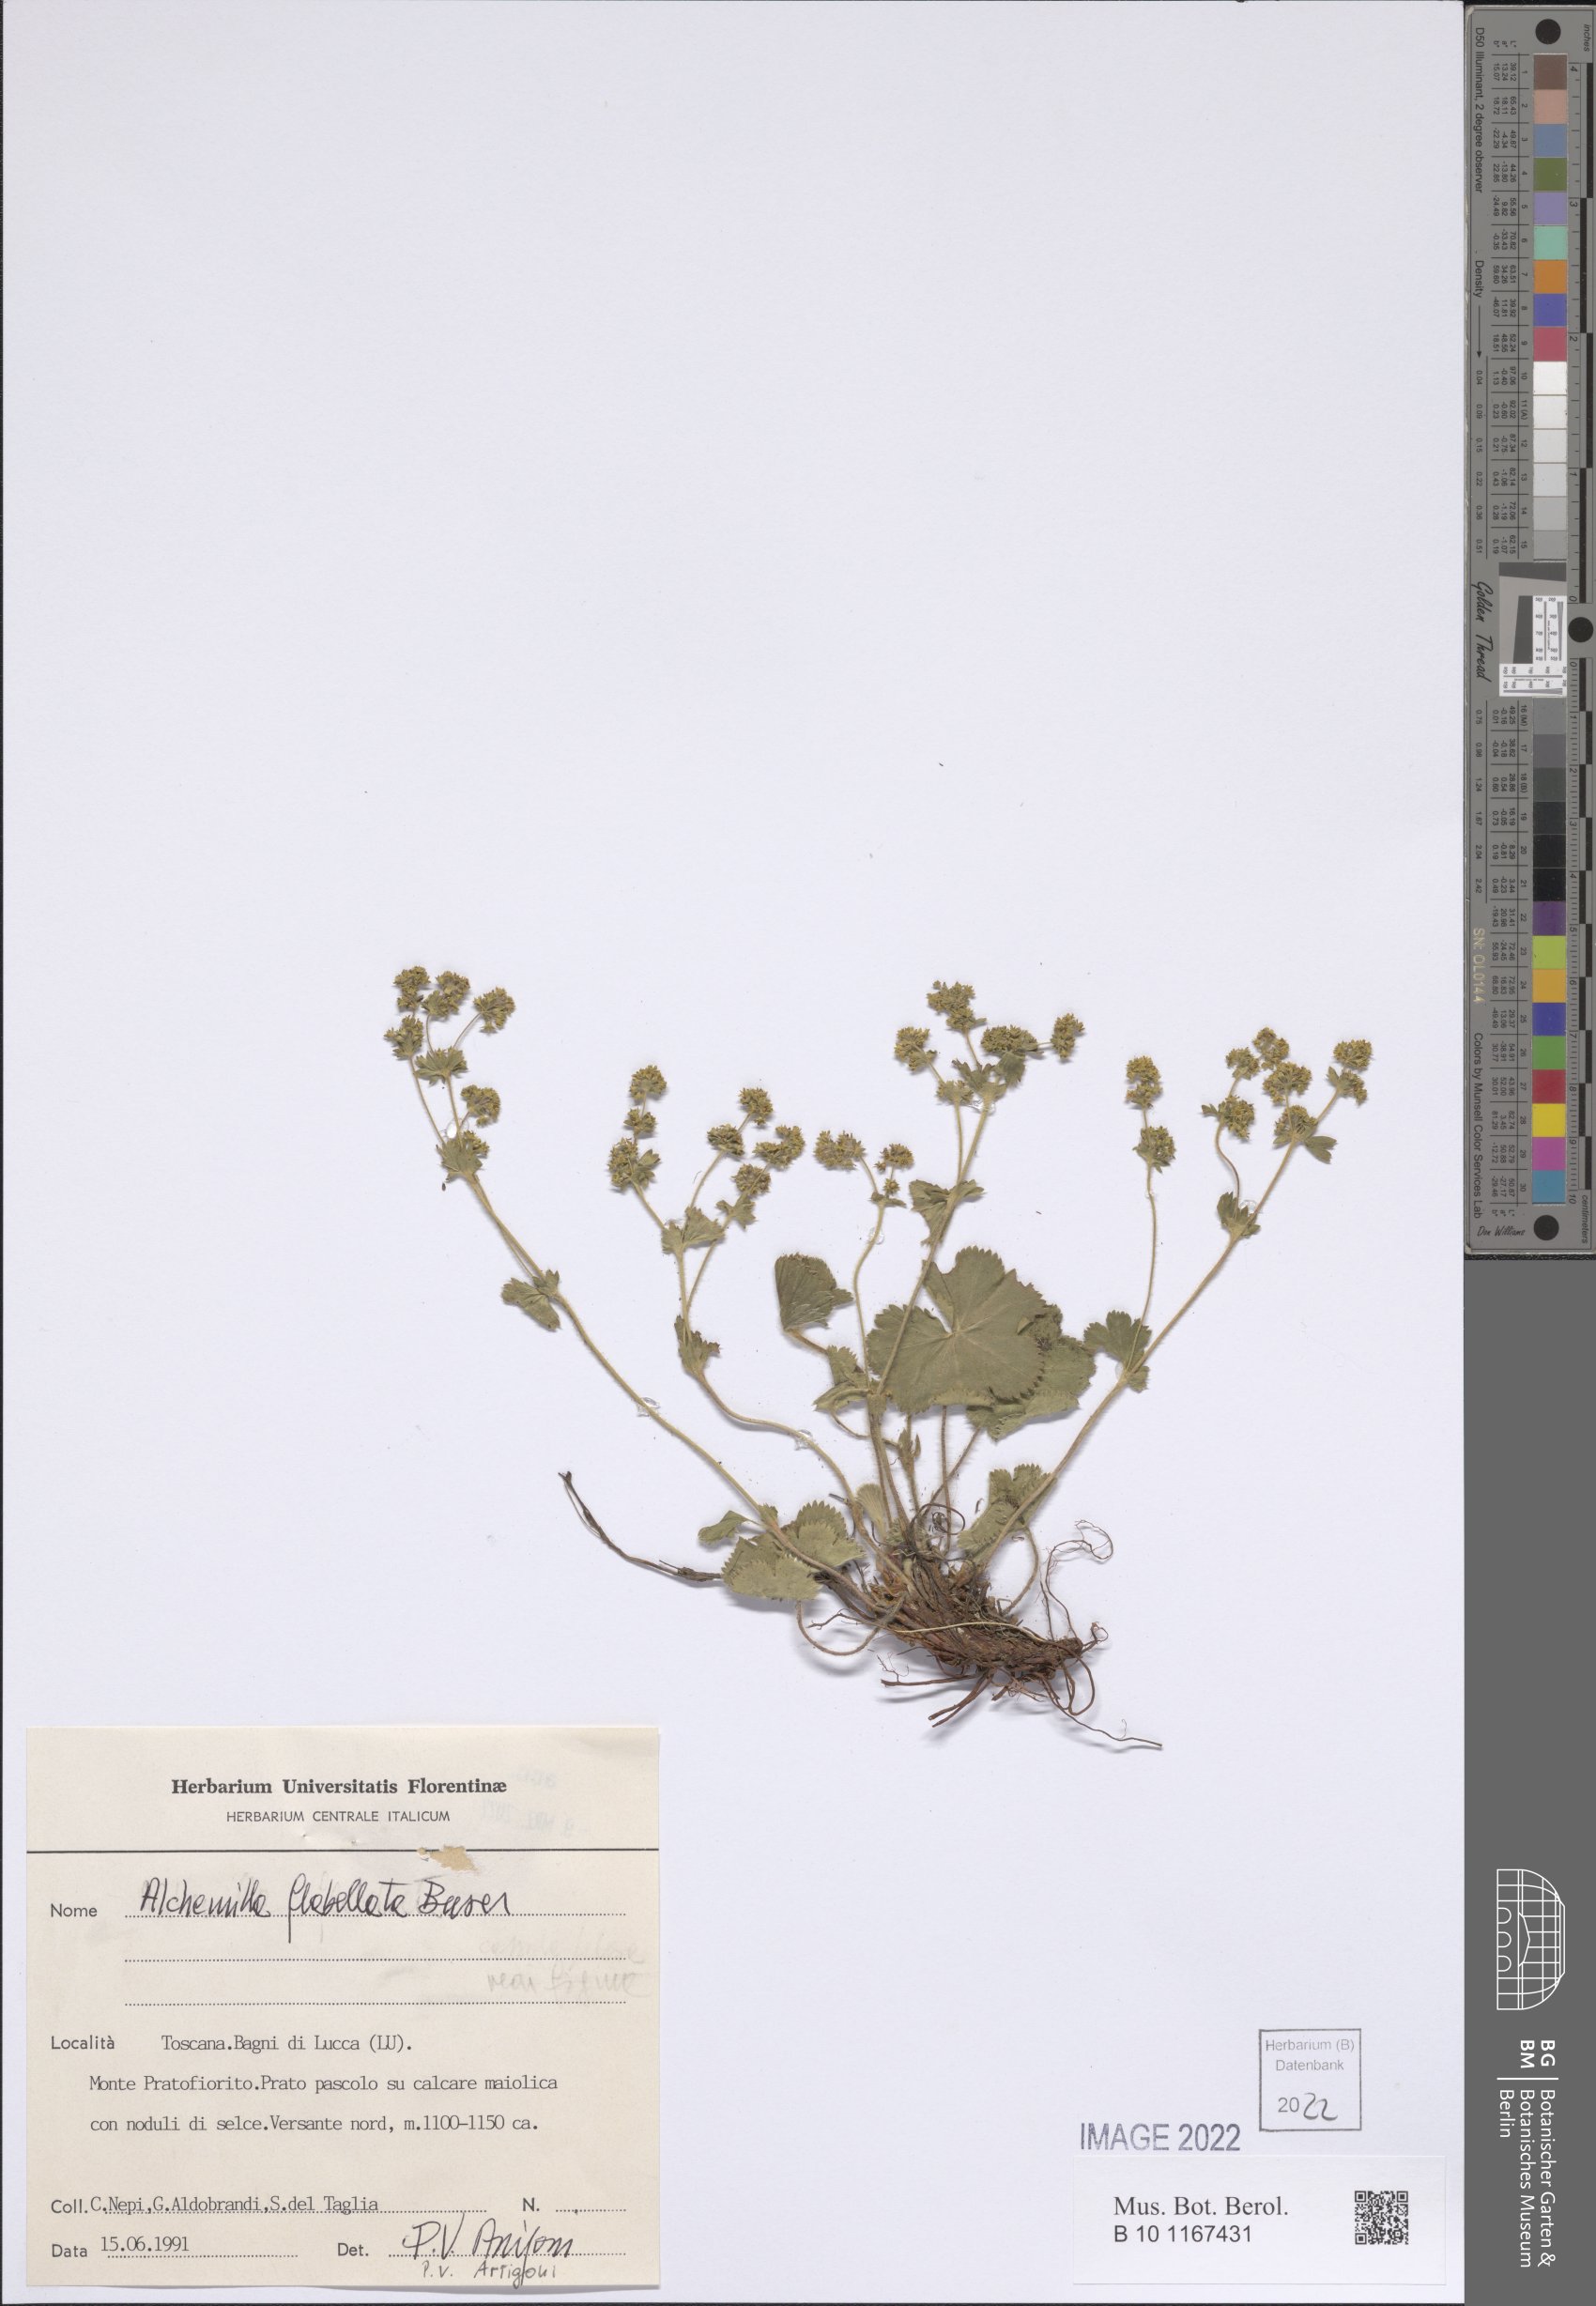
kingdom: Plantae
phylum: Tracheophyta
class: Magnoliopsida
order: Rosales
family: Rosaceae
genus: Alchemilla
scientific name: Alchemilla flabellata
